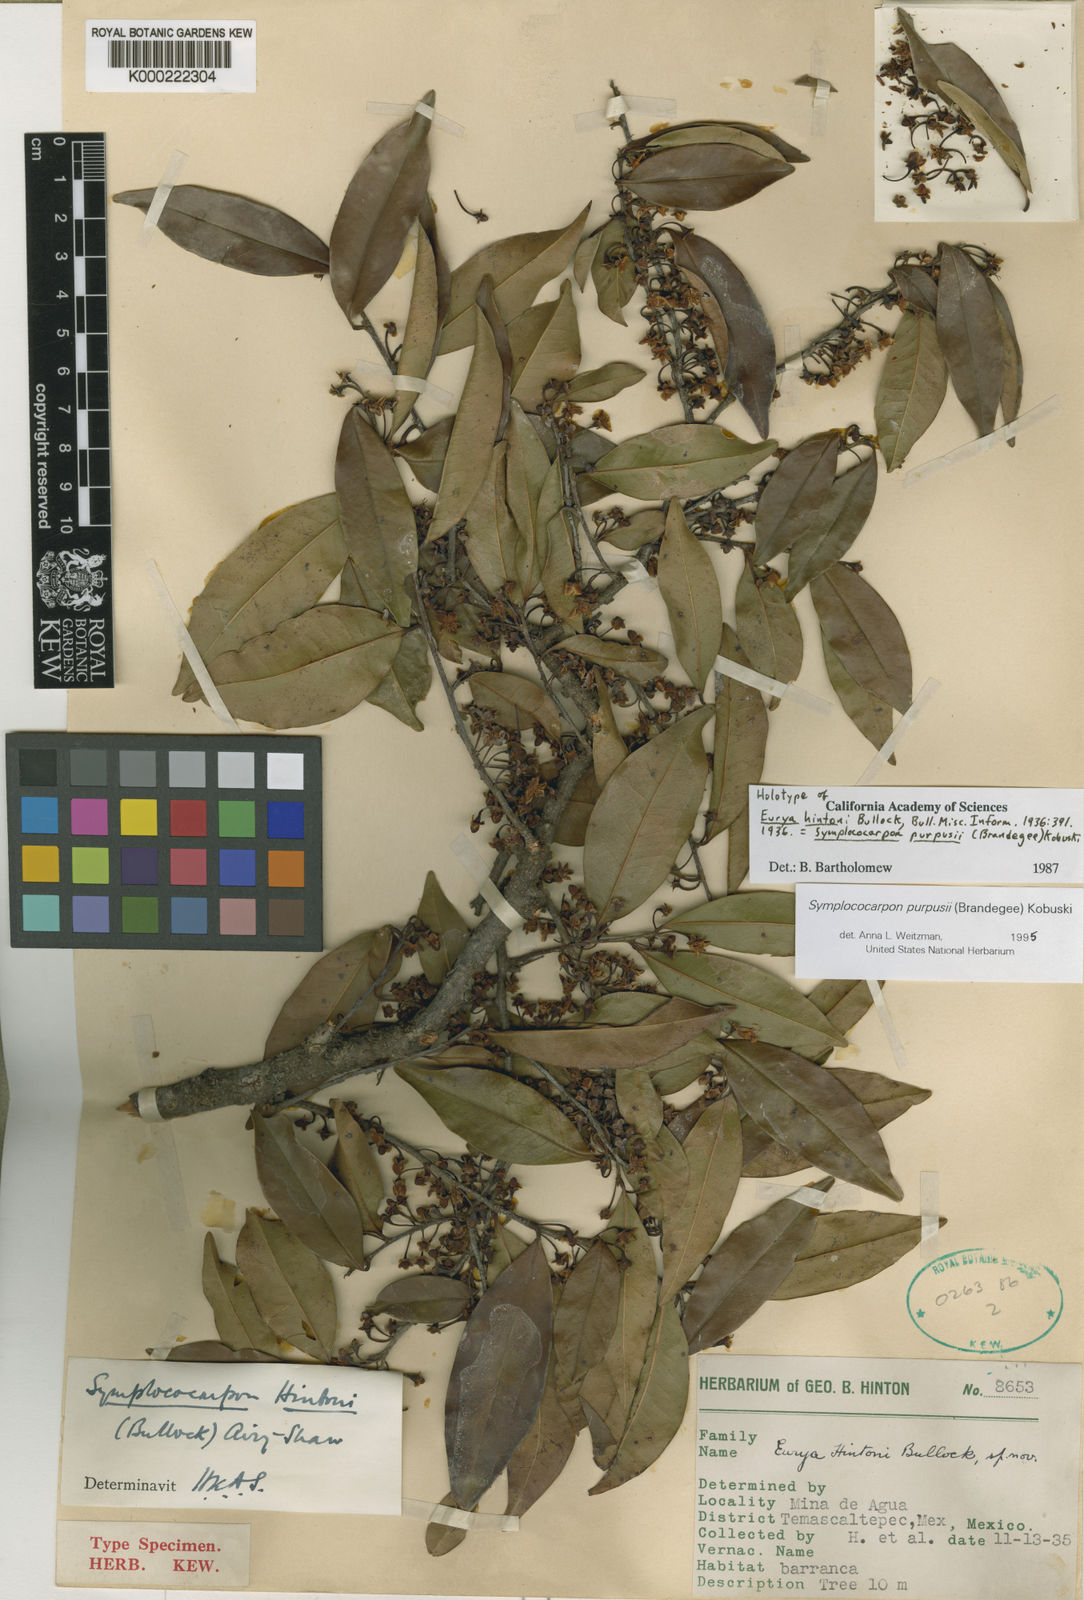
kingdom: Plantae
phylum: Tracheophyta
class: Magnoliopsida
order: Ericales
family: Pentaphylacaceae
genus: Symplococarpon
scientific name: Symplococarpon purpusii
